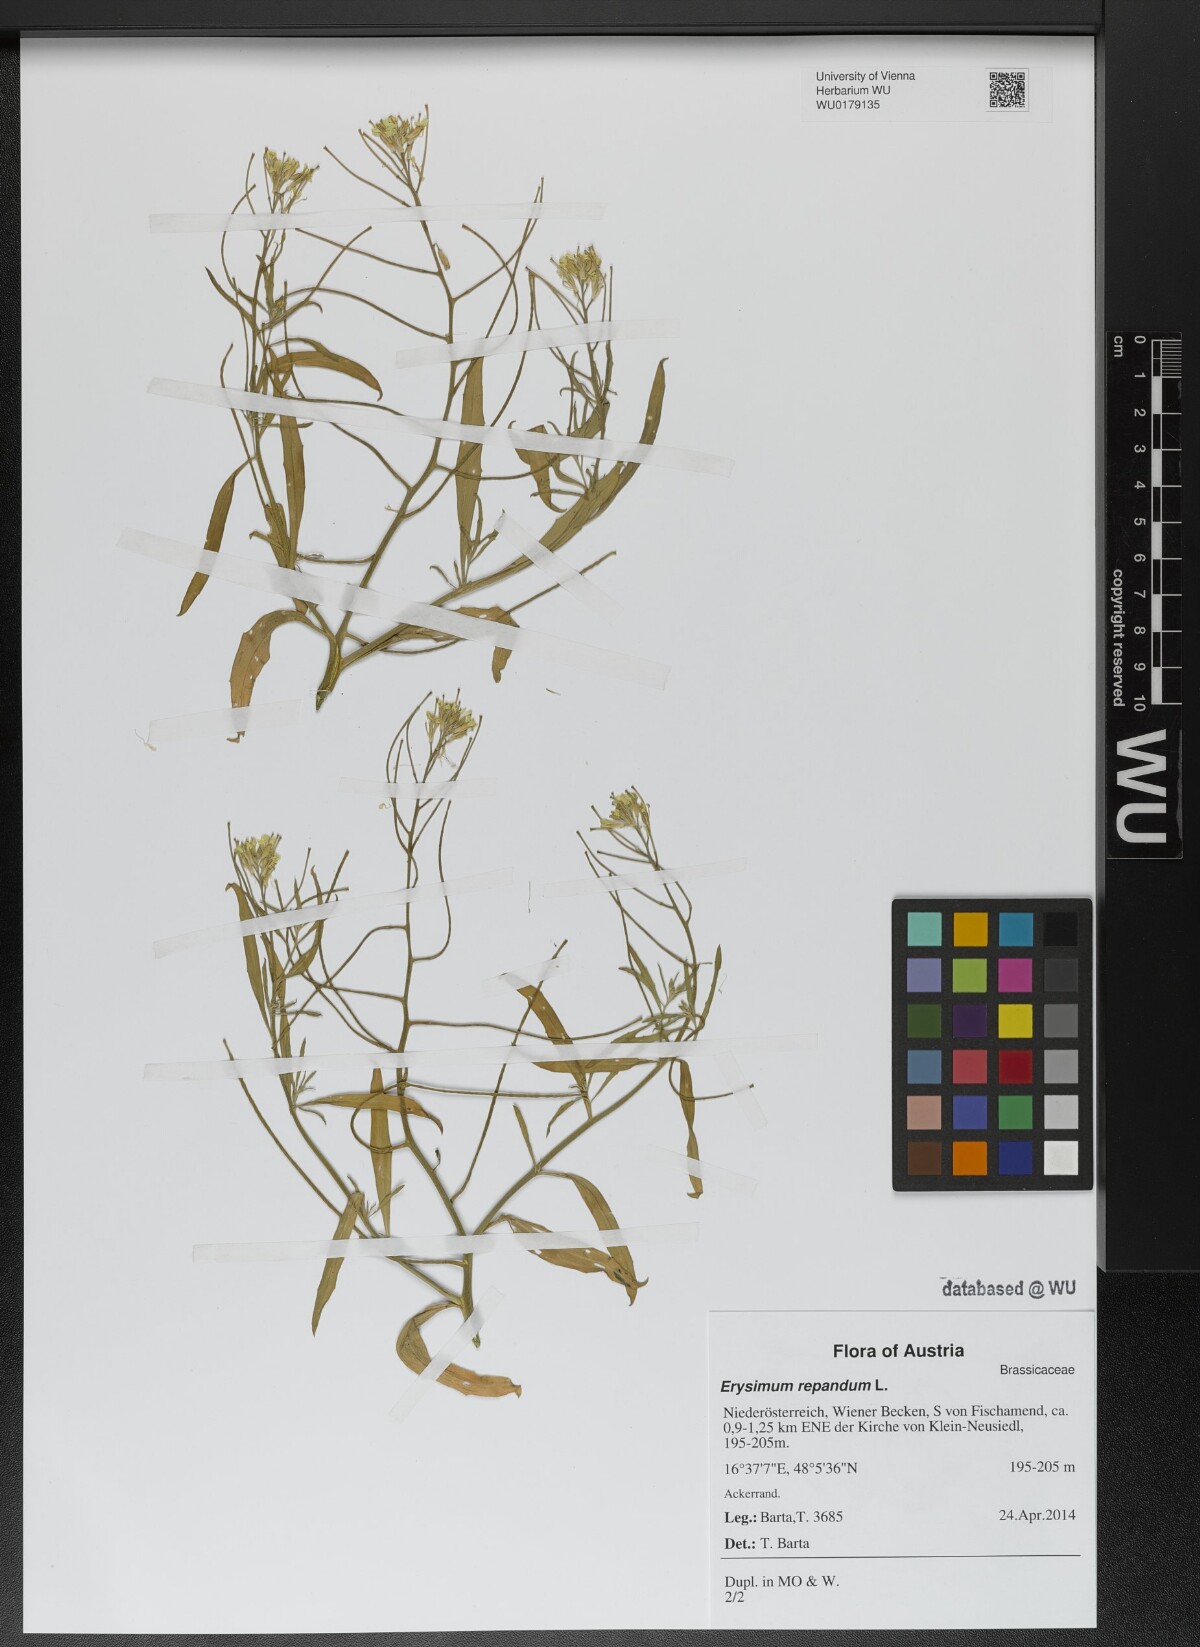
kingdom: Plantae
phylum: Tracheophyta
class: Magnoliopsida
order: Brassicales
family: Brassicaceae
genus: Erysimum
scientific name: Erysimum repandum
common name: Spreading wallflower
